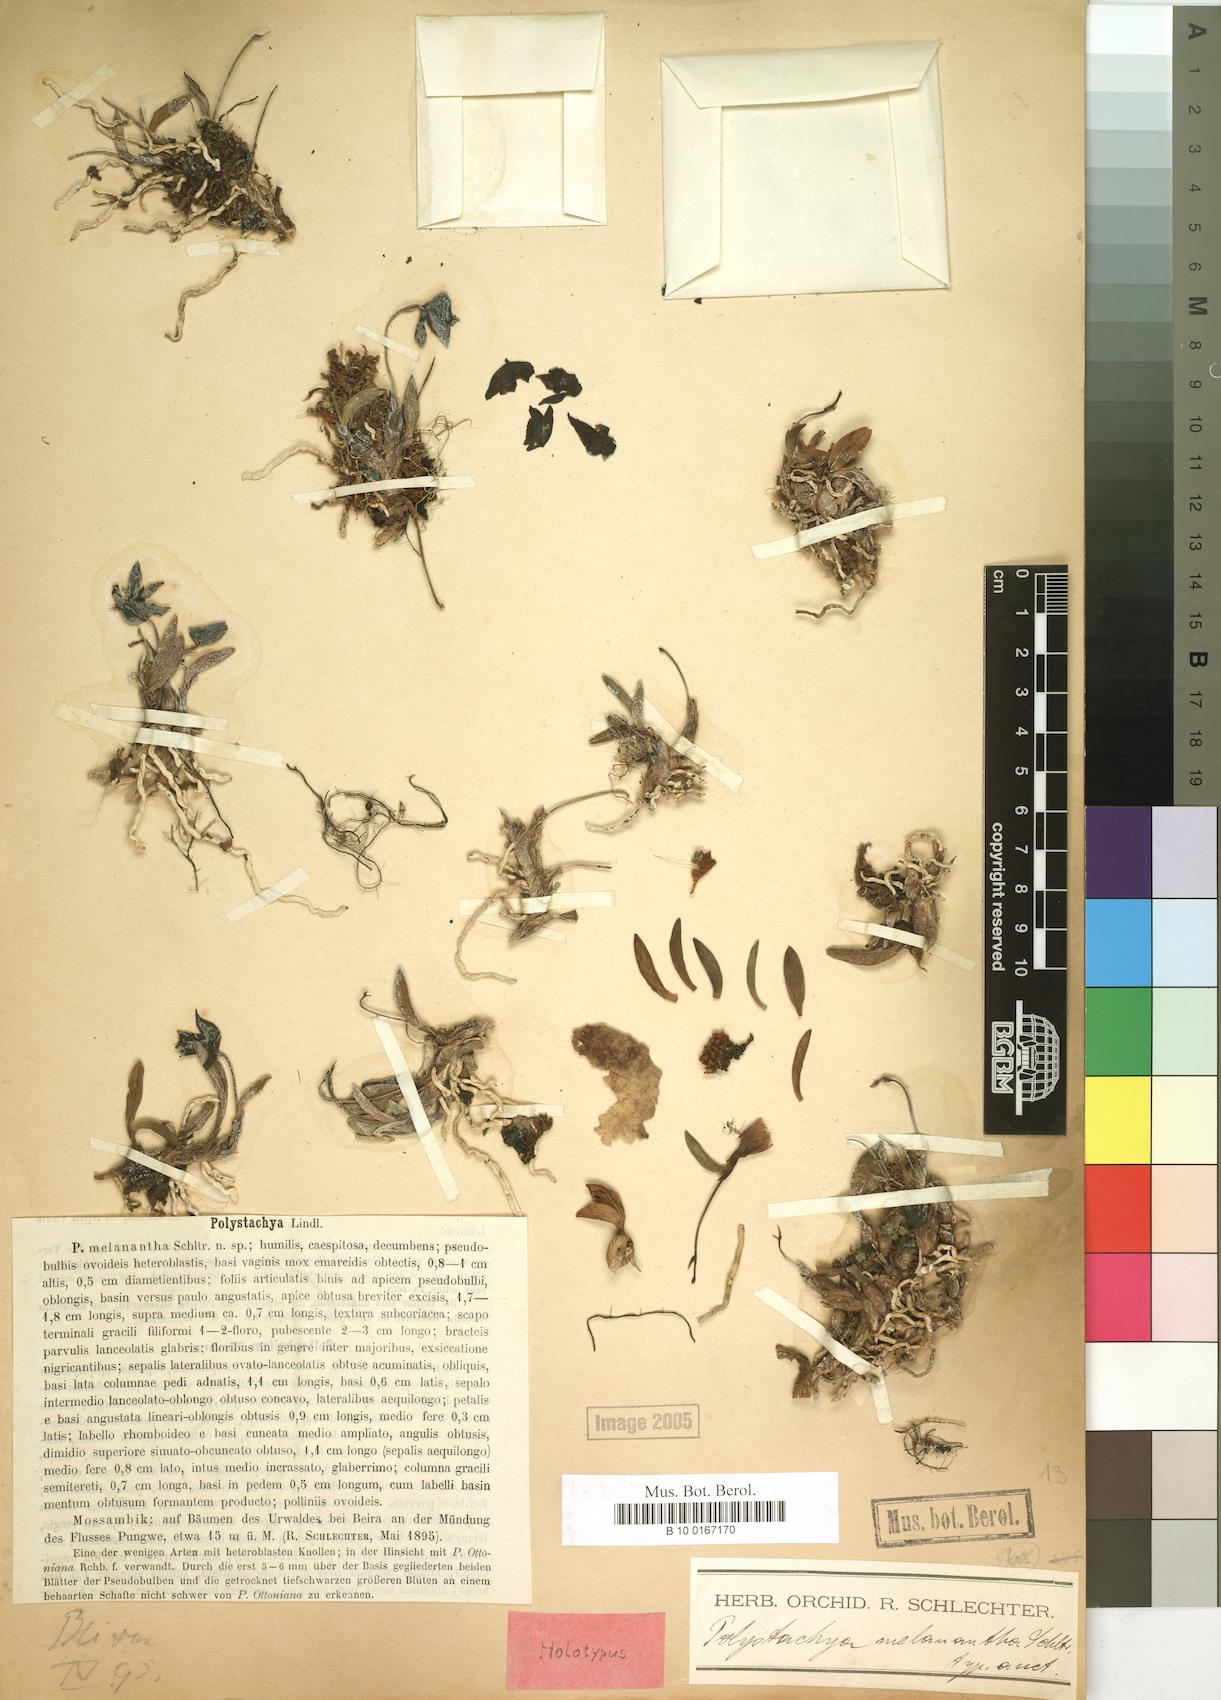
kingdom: Plantae
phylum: Tracheophyta
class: Liliopsida
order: Asparagales
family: Orchidaceae
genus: Polystachya
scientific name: Polystachya melanantha
